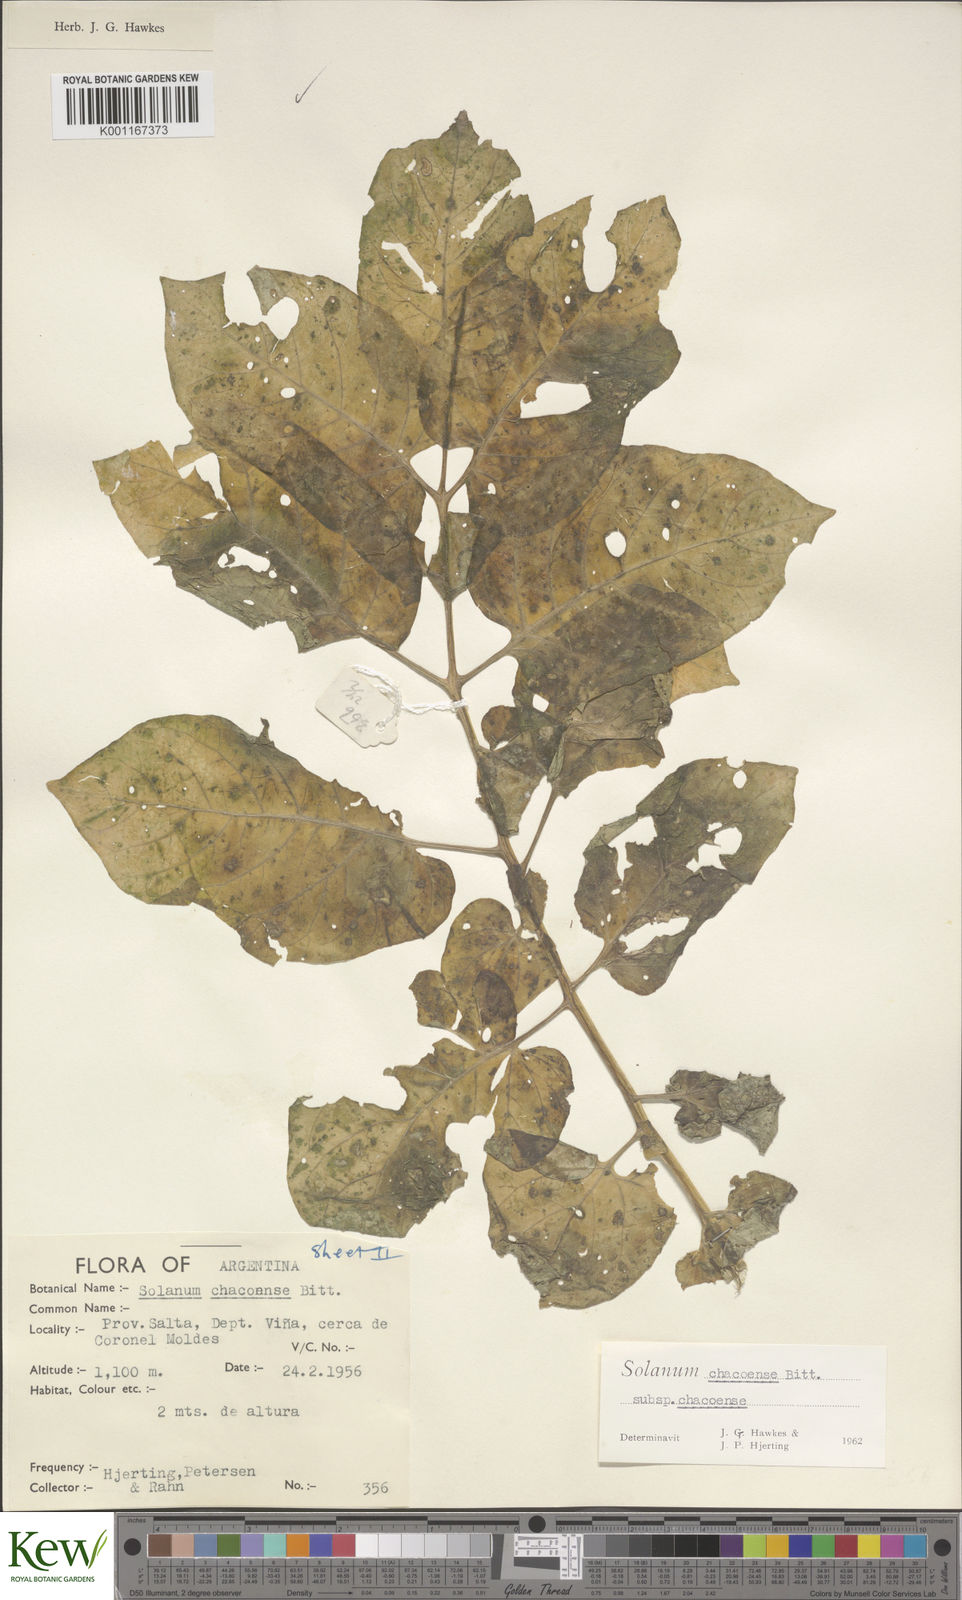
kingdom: Plantae
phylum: Tracheophyta
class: Magnoliopsida
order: Solanales
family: Solanaceae
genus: Solanum
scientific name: Solanum chacoense
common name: Chaco potato
